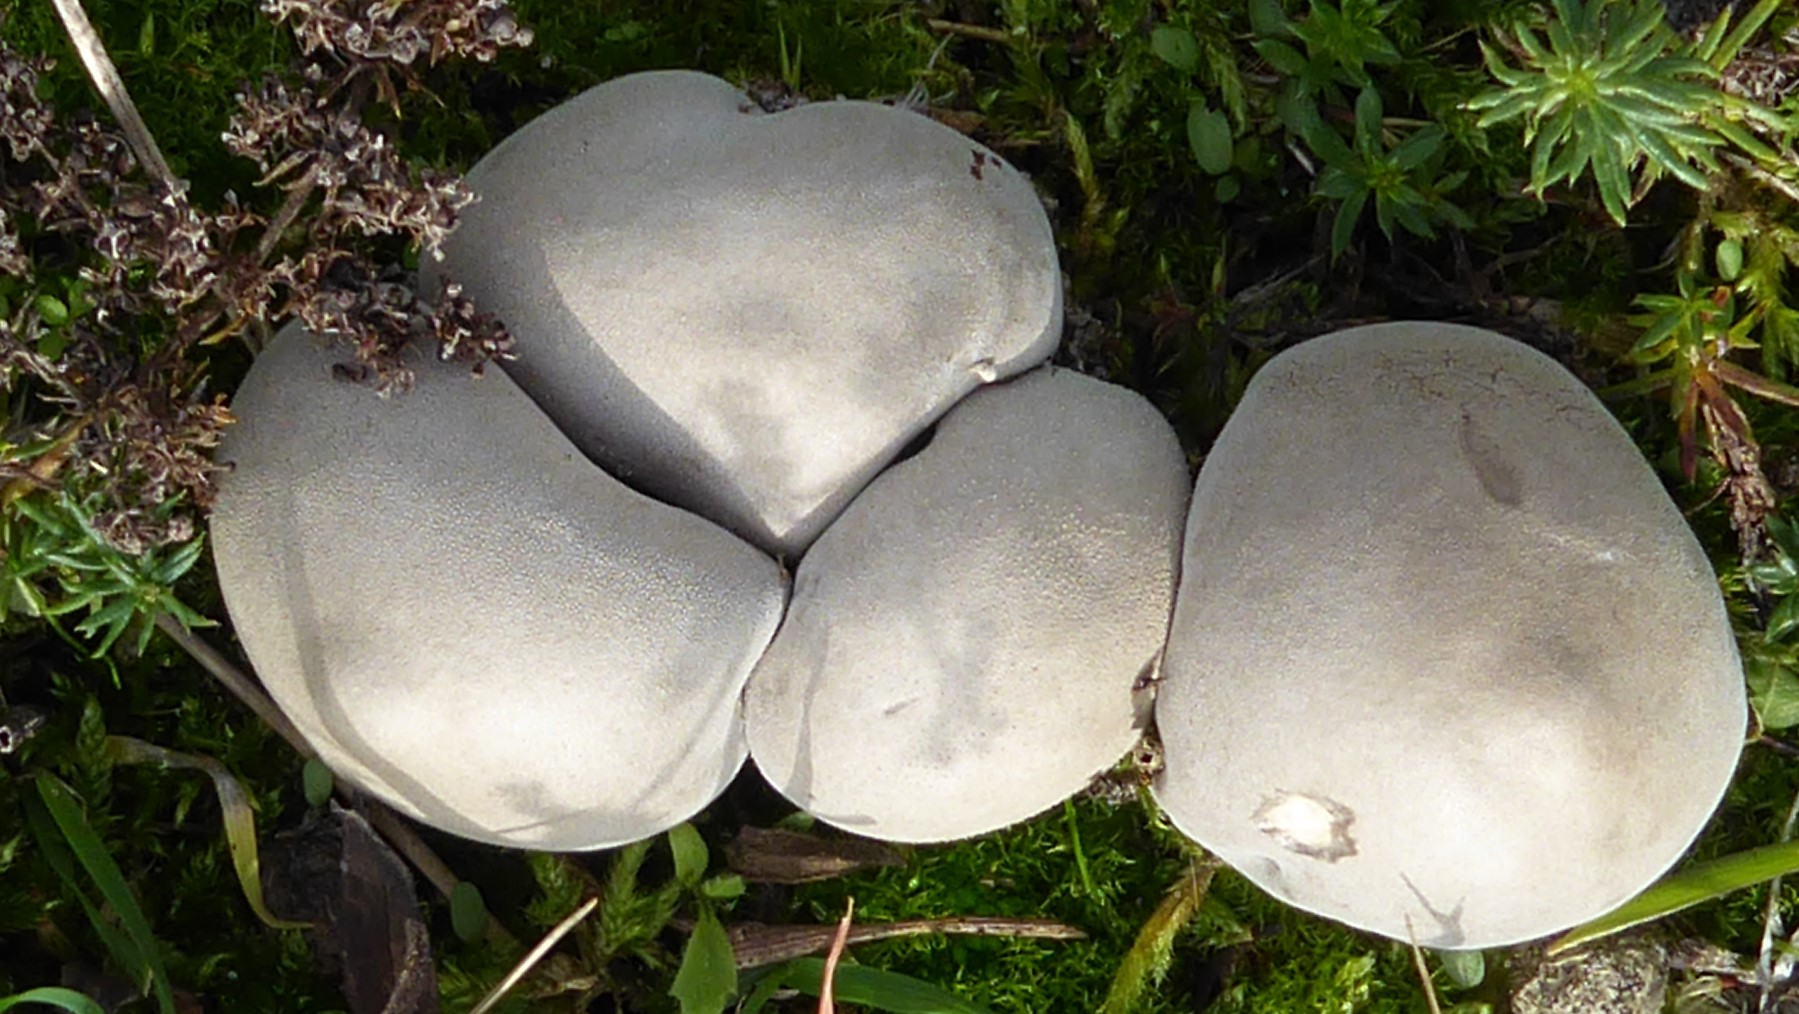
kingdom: Fungi
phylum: Basidiomycota
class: Agaricomycetes
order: Agaricales
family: Lycoperdaceae
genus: Bovista
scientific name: Bovista aestivalis
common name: klit-bovist
